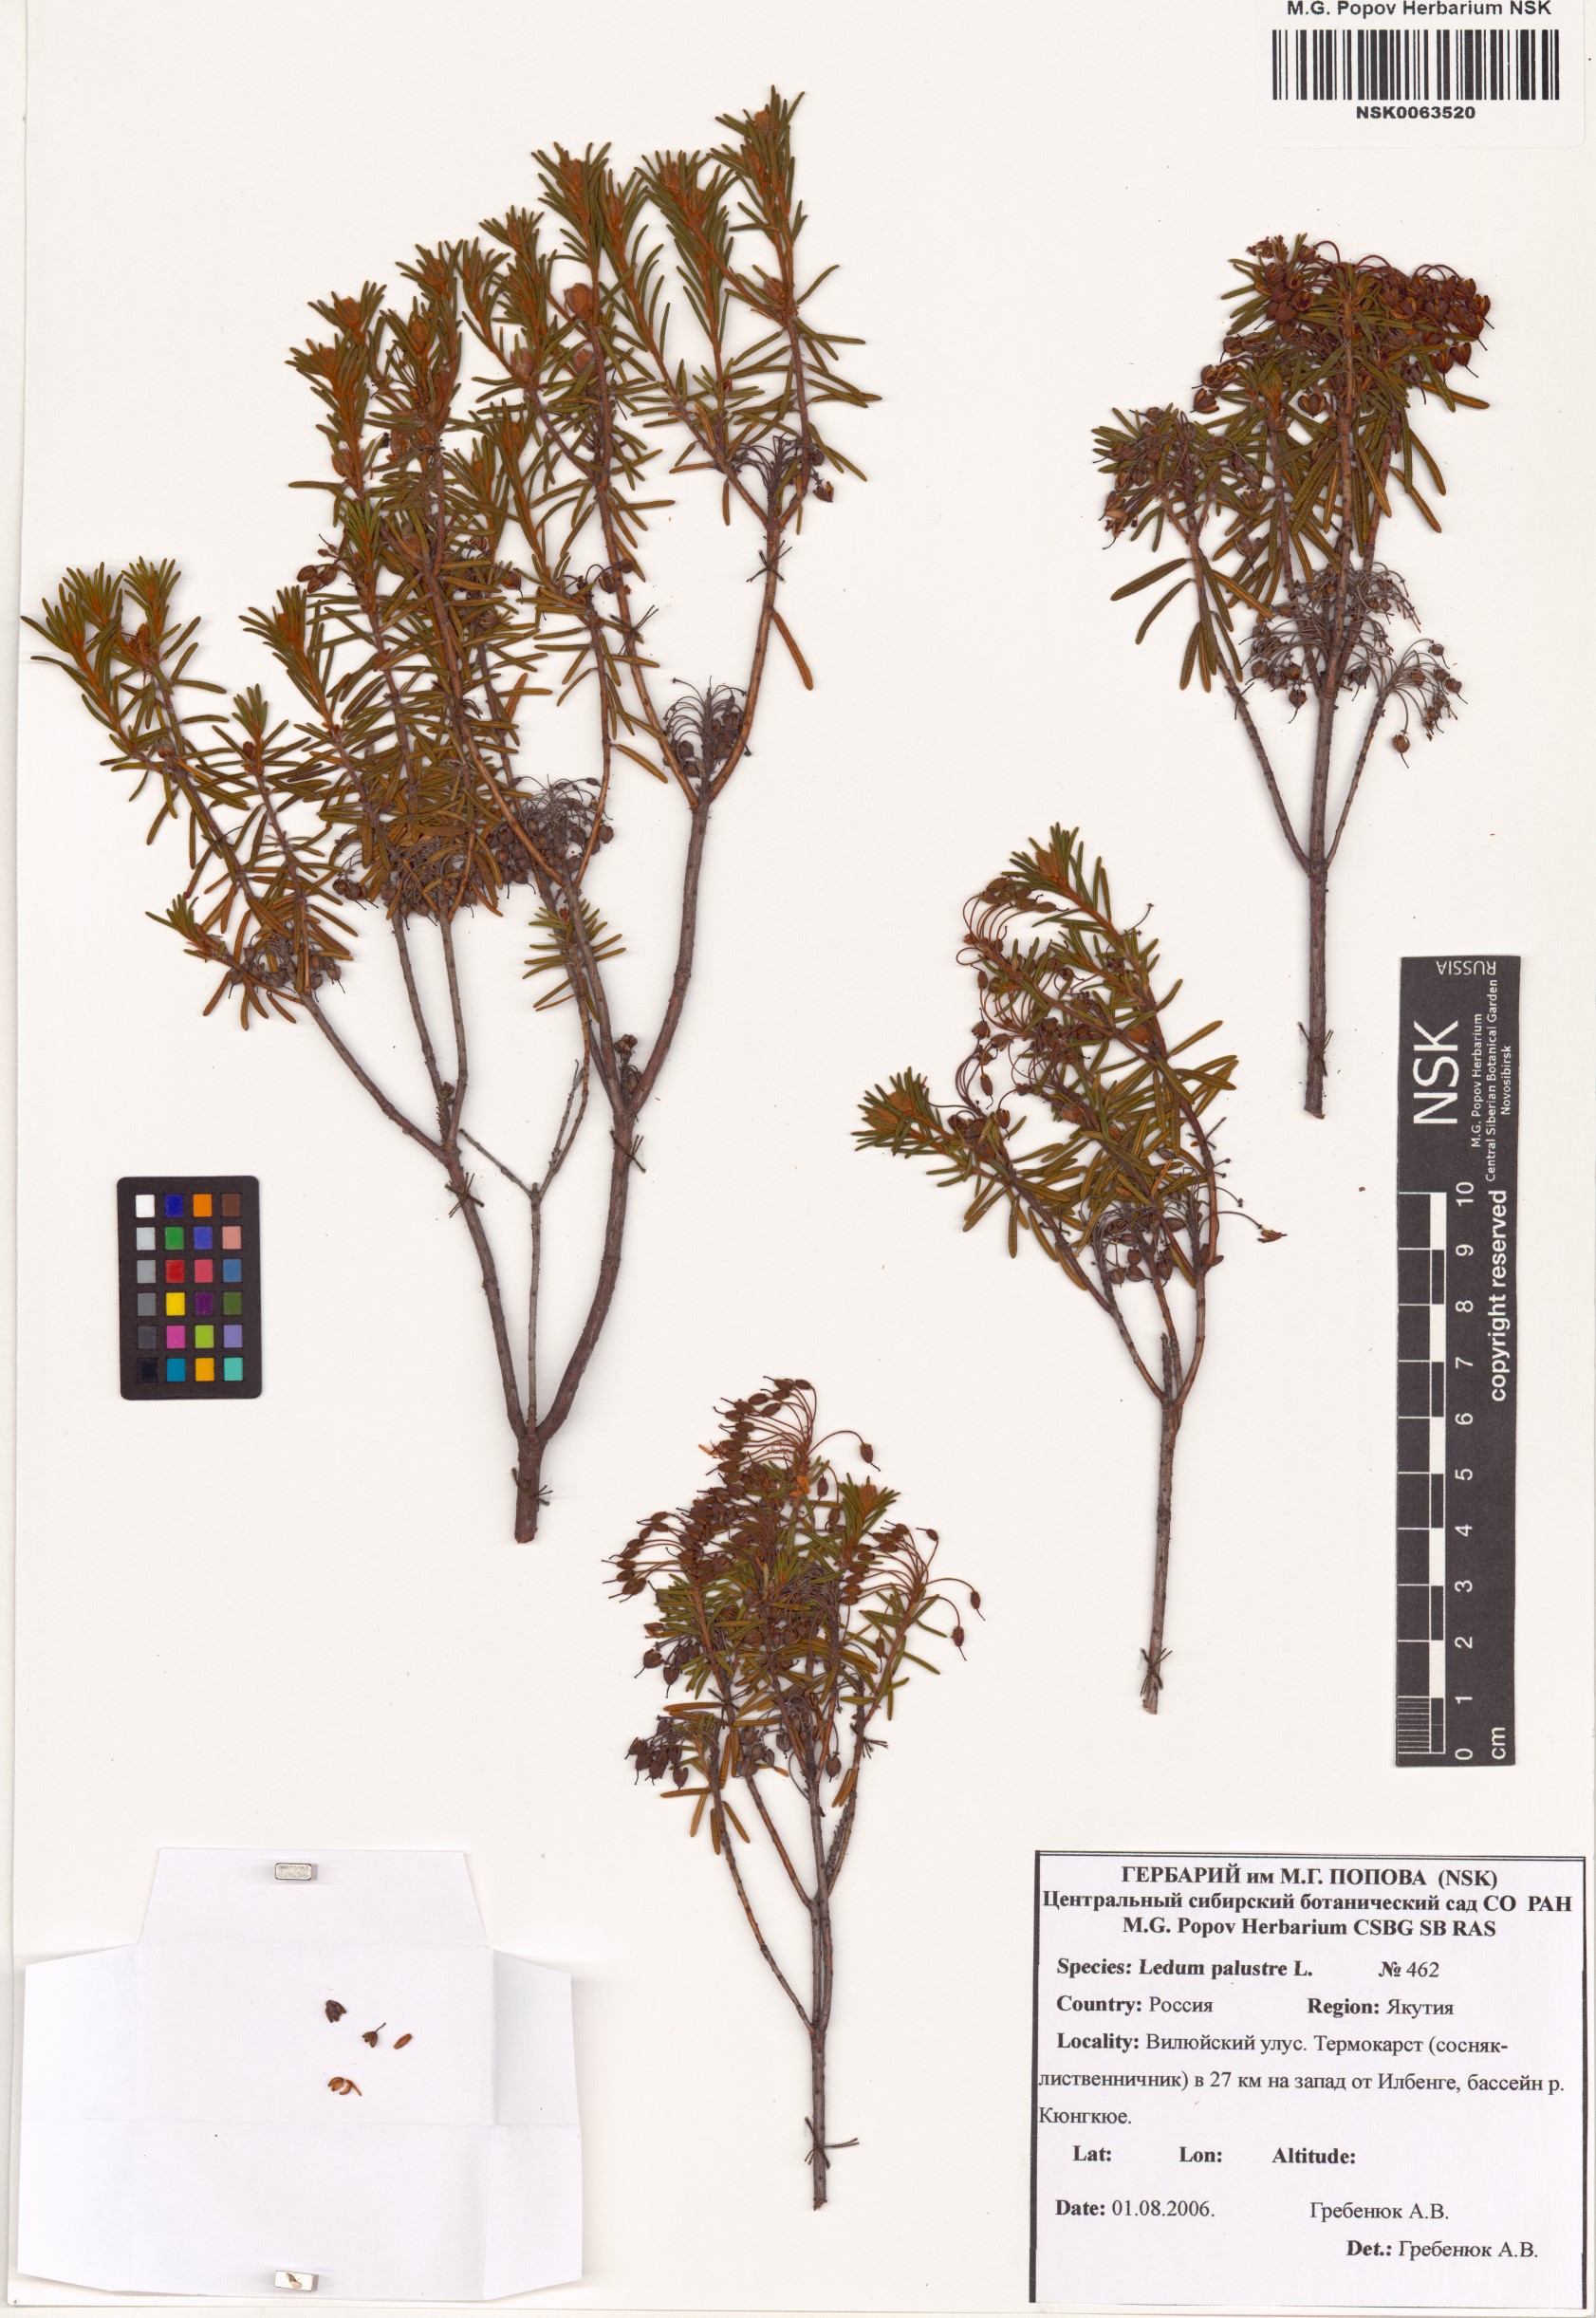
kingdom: Plantae
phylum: Tracheophyta
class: Magnoliopsida
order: Ericales
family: Ericaceae
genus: Rhododendron
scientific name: Rhododendron tomentosum
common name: Marsh labrador tea
